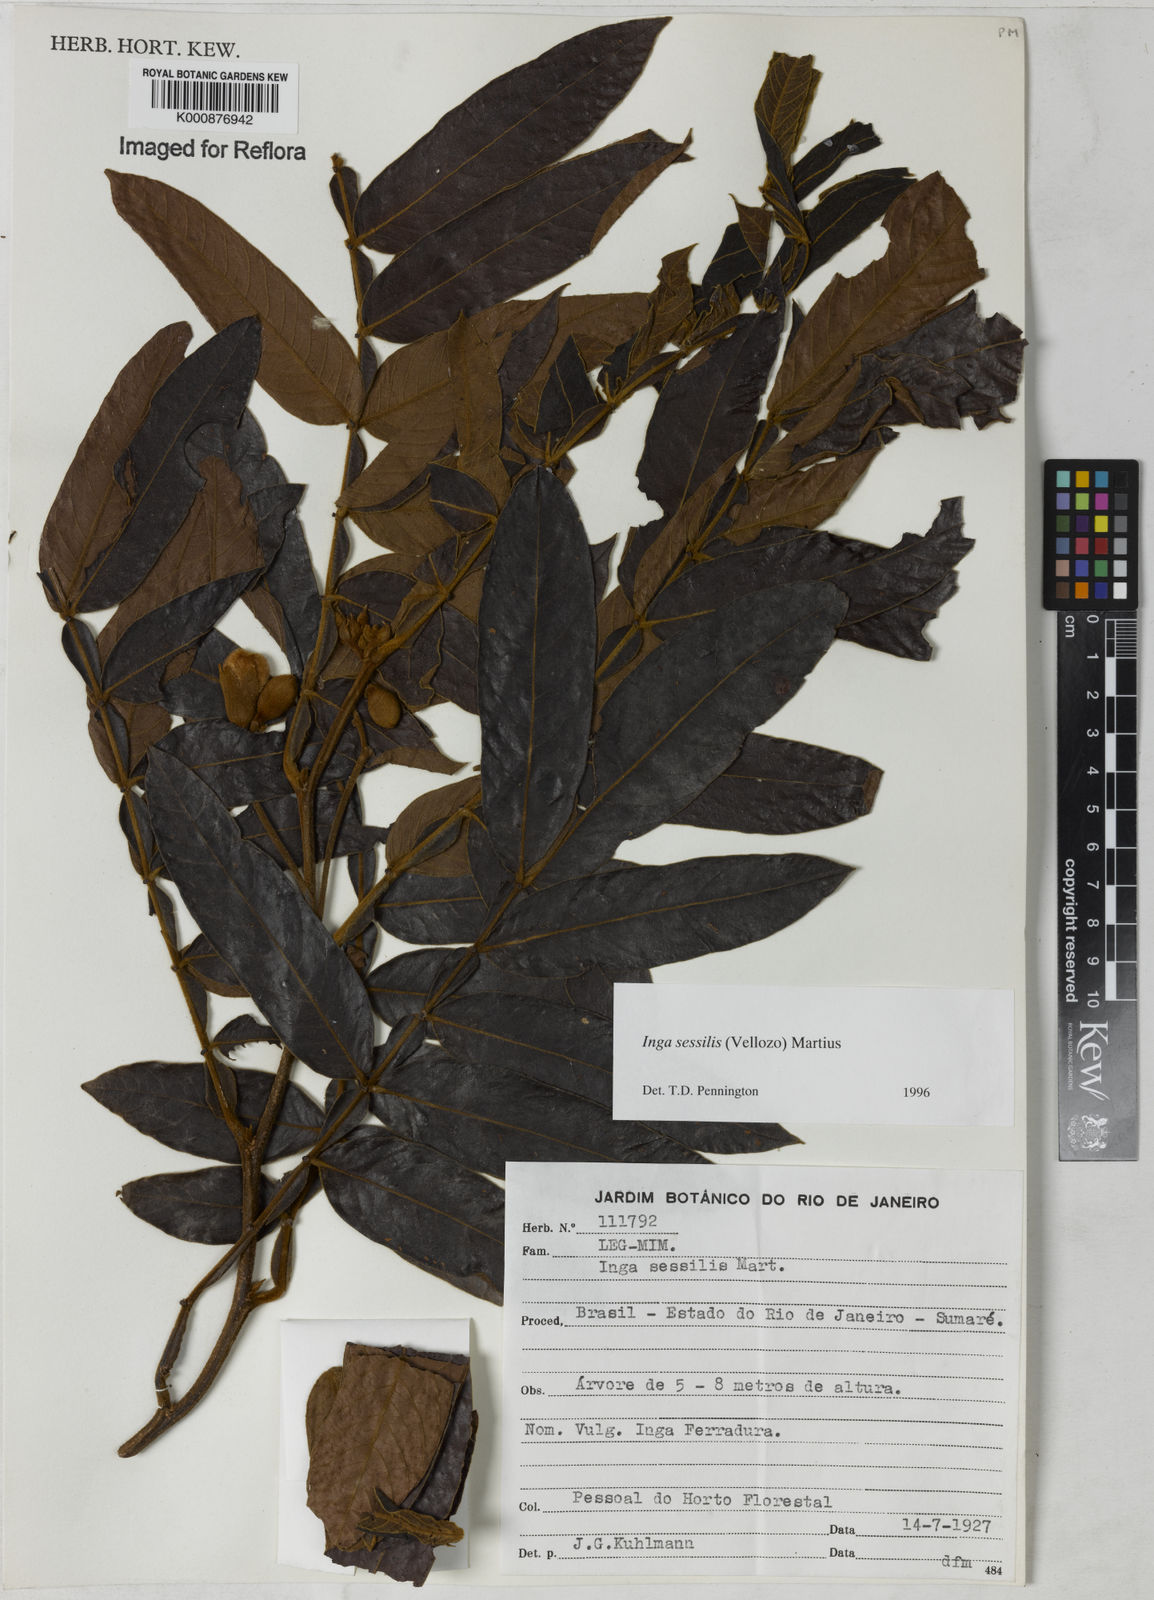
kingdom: Plantae
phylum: Tracheophyta
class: Magnoliopsida
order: Fabales
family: Fabaceae
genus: Inga
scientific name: Inga sessilis
